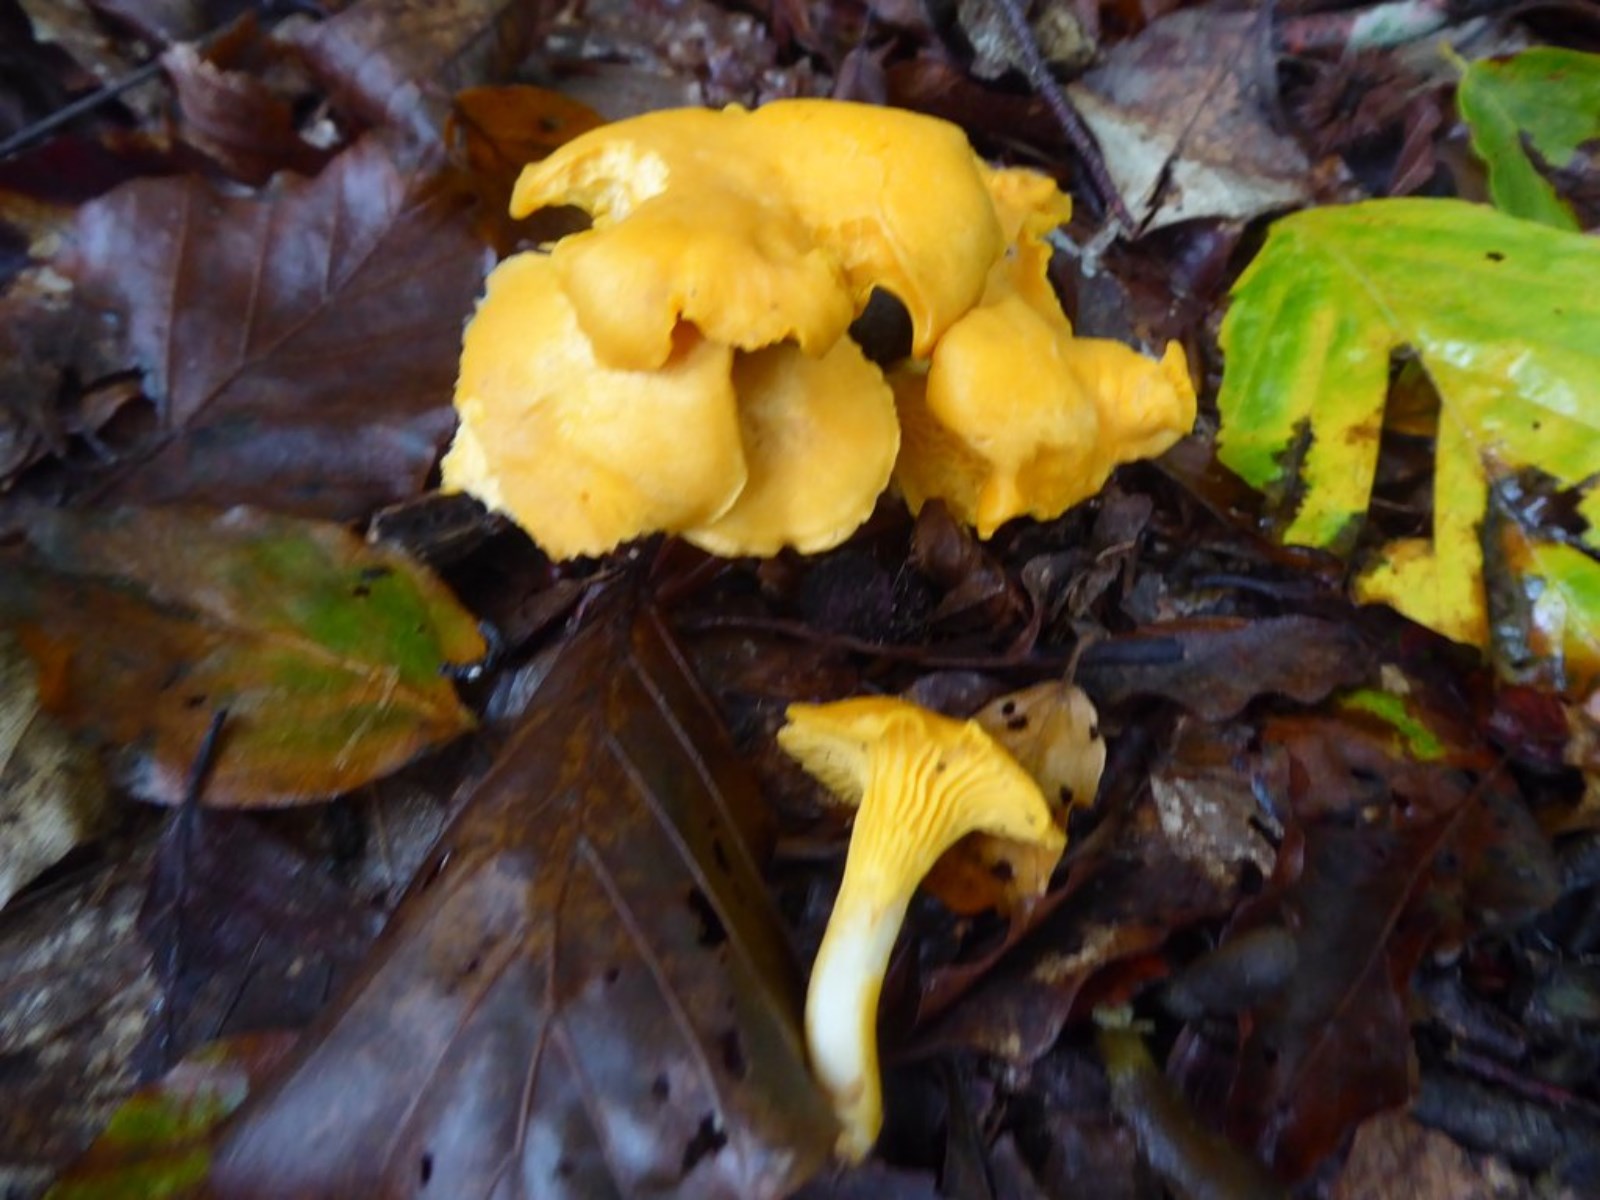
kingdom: Fungi
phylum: Basidiomycota
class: Agaricomycetes
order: Cantharellales
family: Hydnaceae
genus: Cantharellus
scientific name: Cantharellus cibarius
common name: almindelig kantarel
